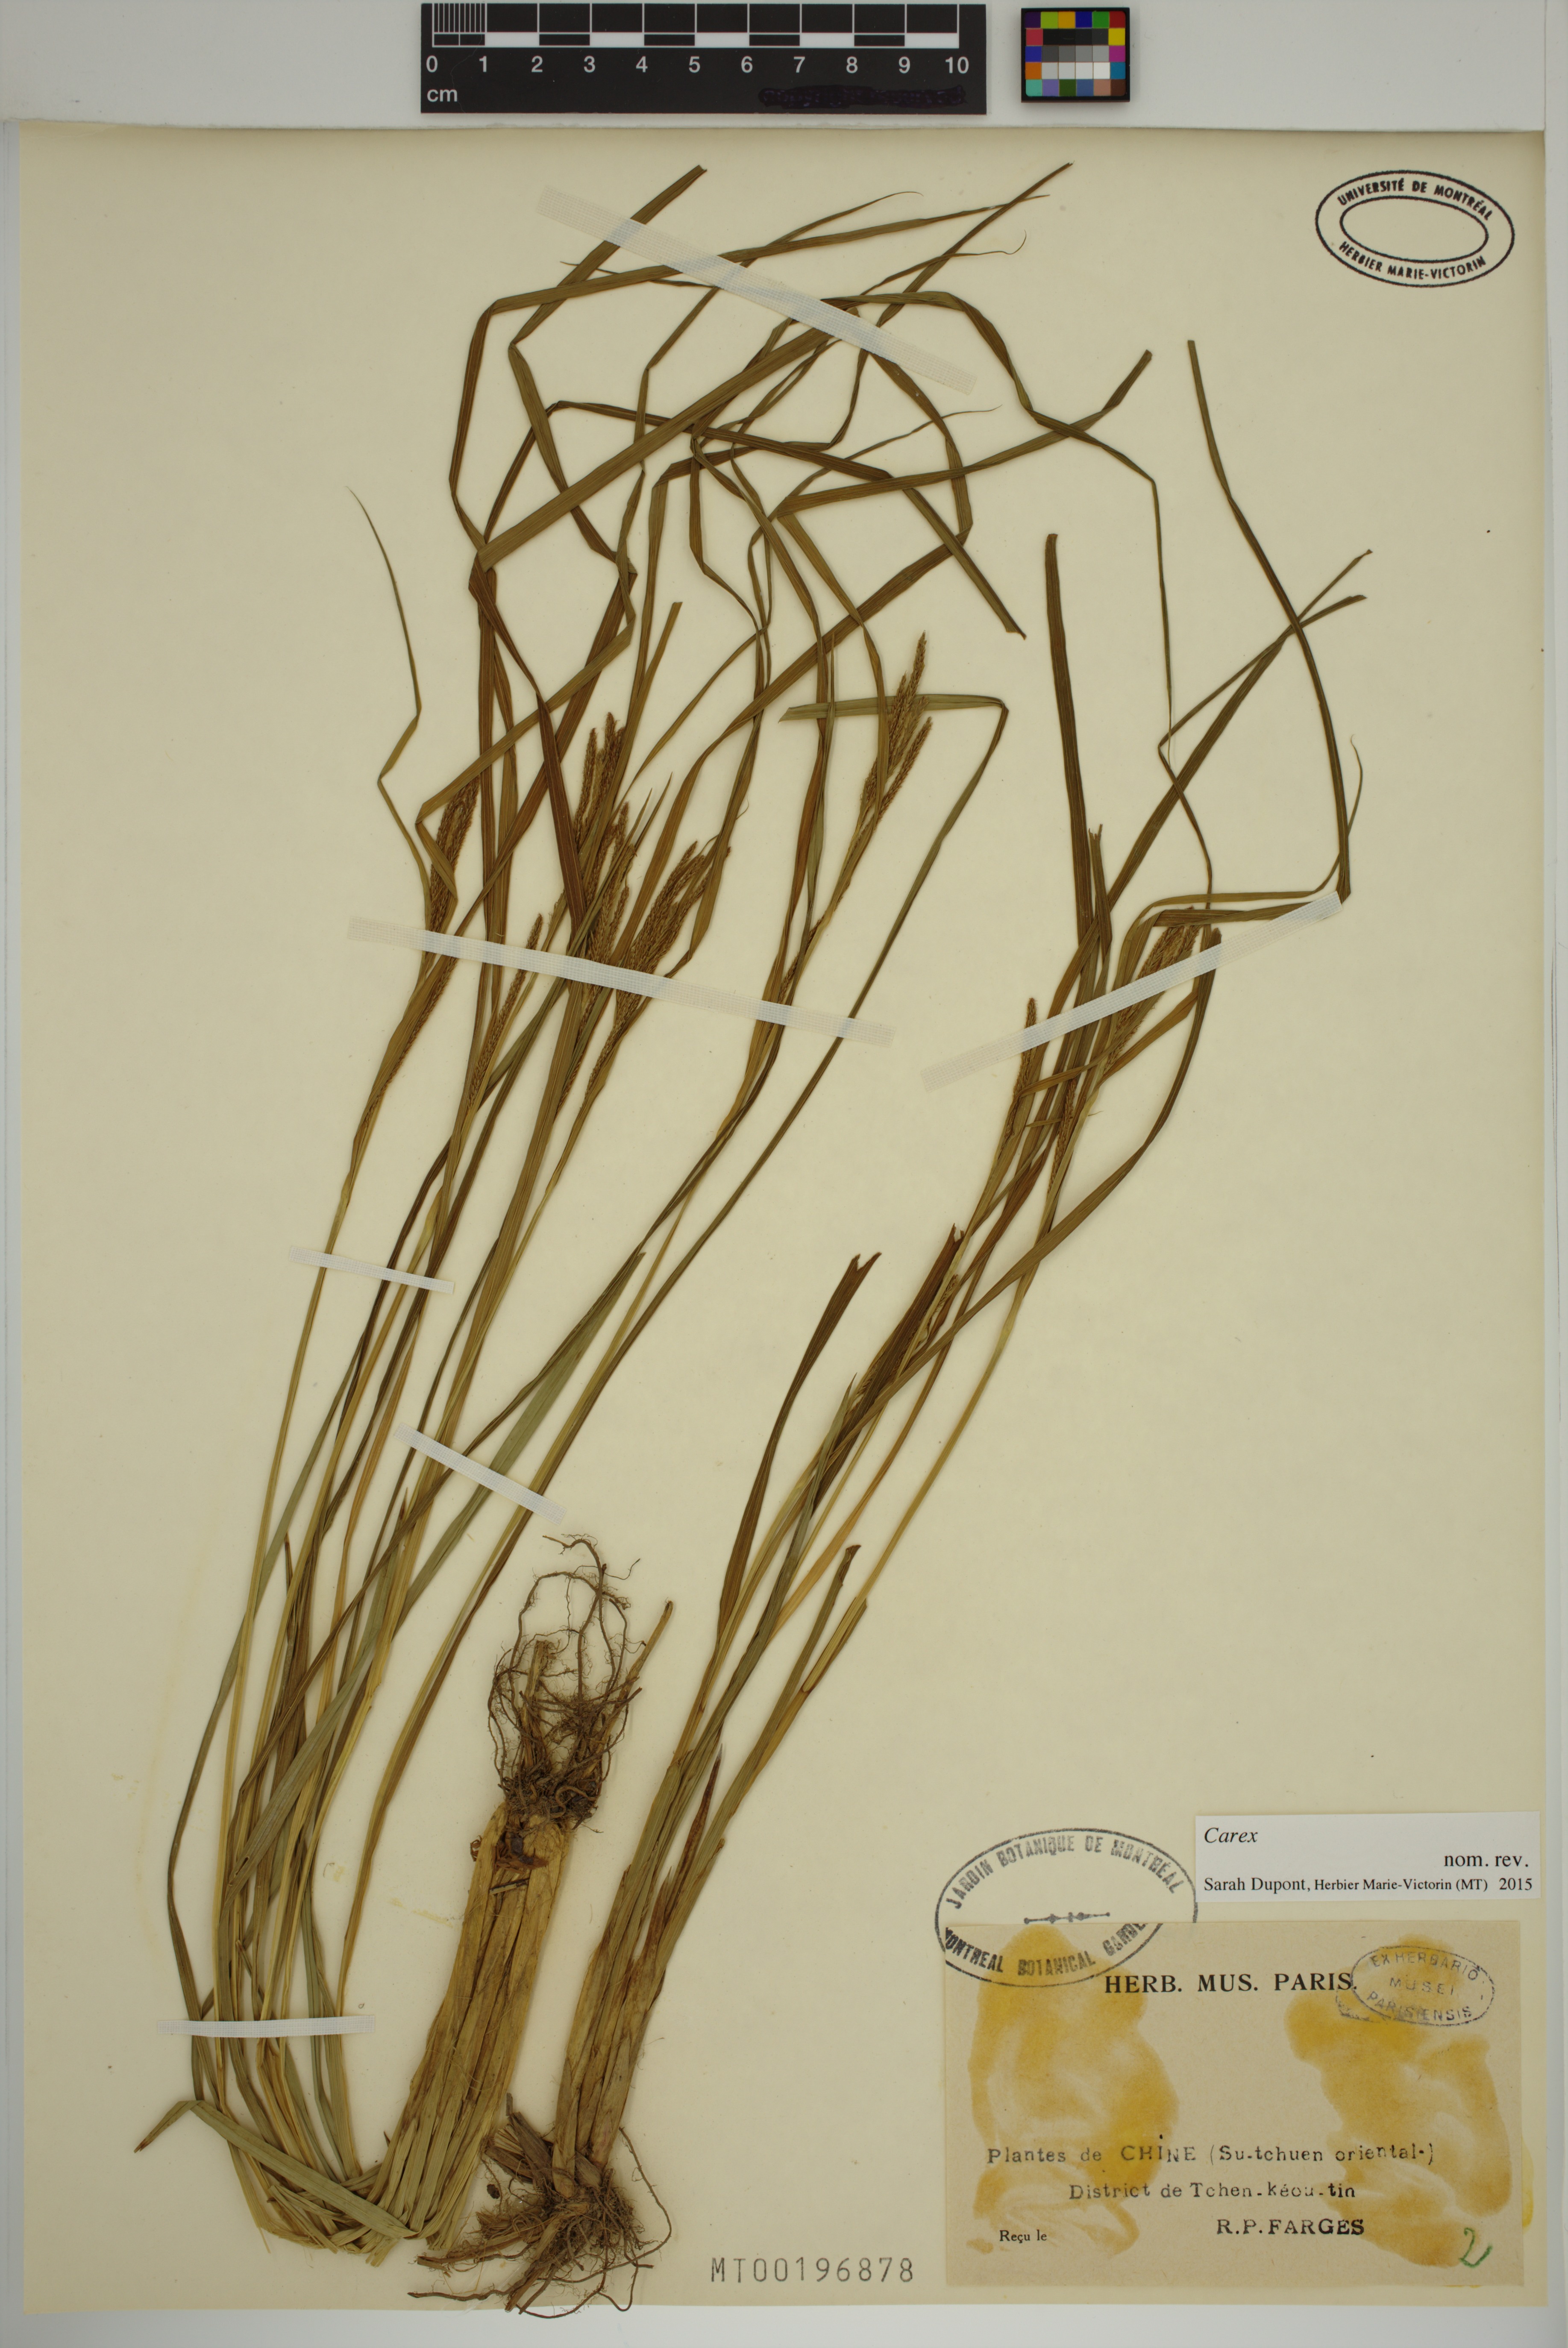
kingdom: Plantae
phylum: Tracheophyta
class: Liliopsida
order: Poales
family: Cyperaceae
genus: Carex
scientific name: Carex
